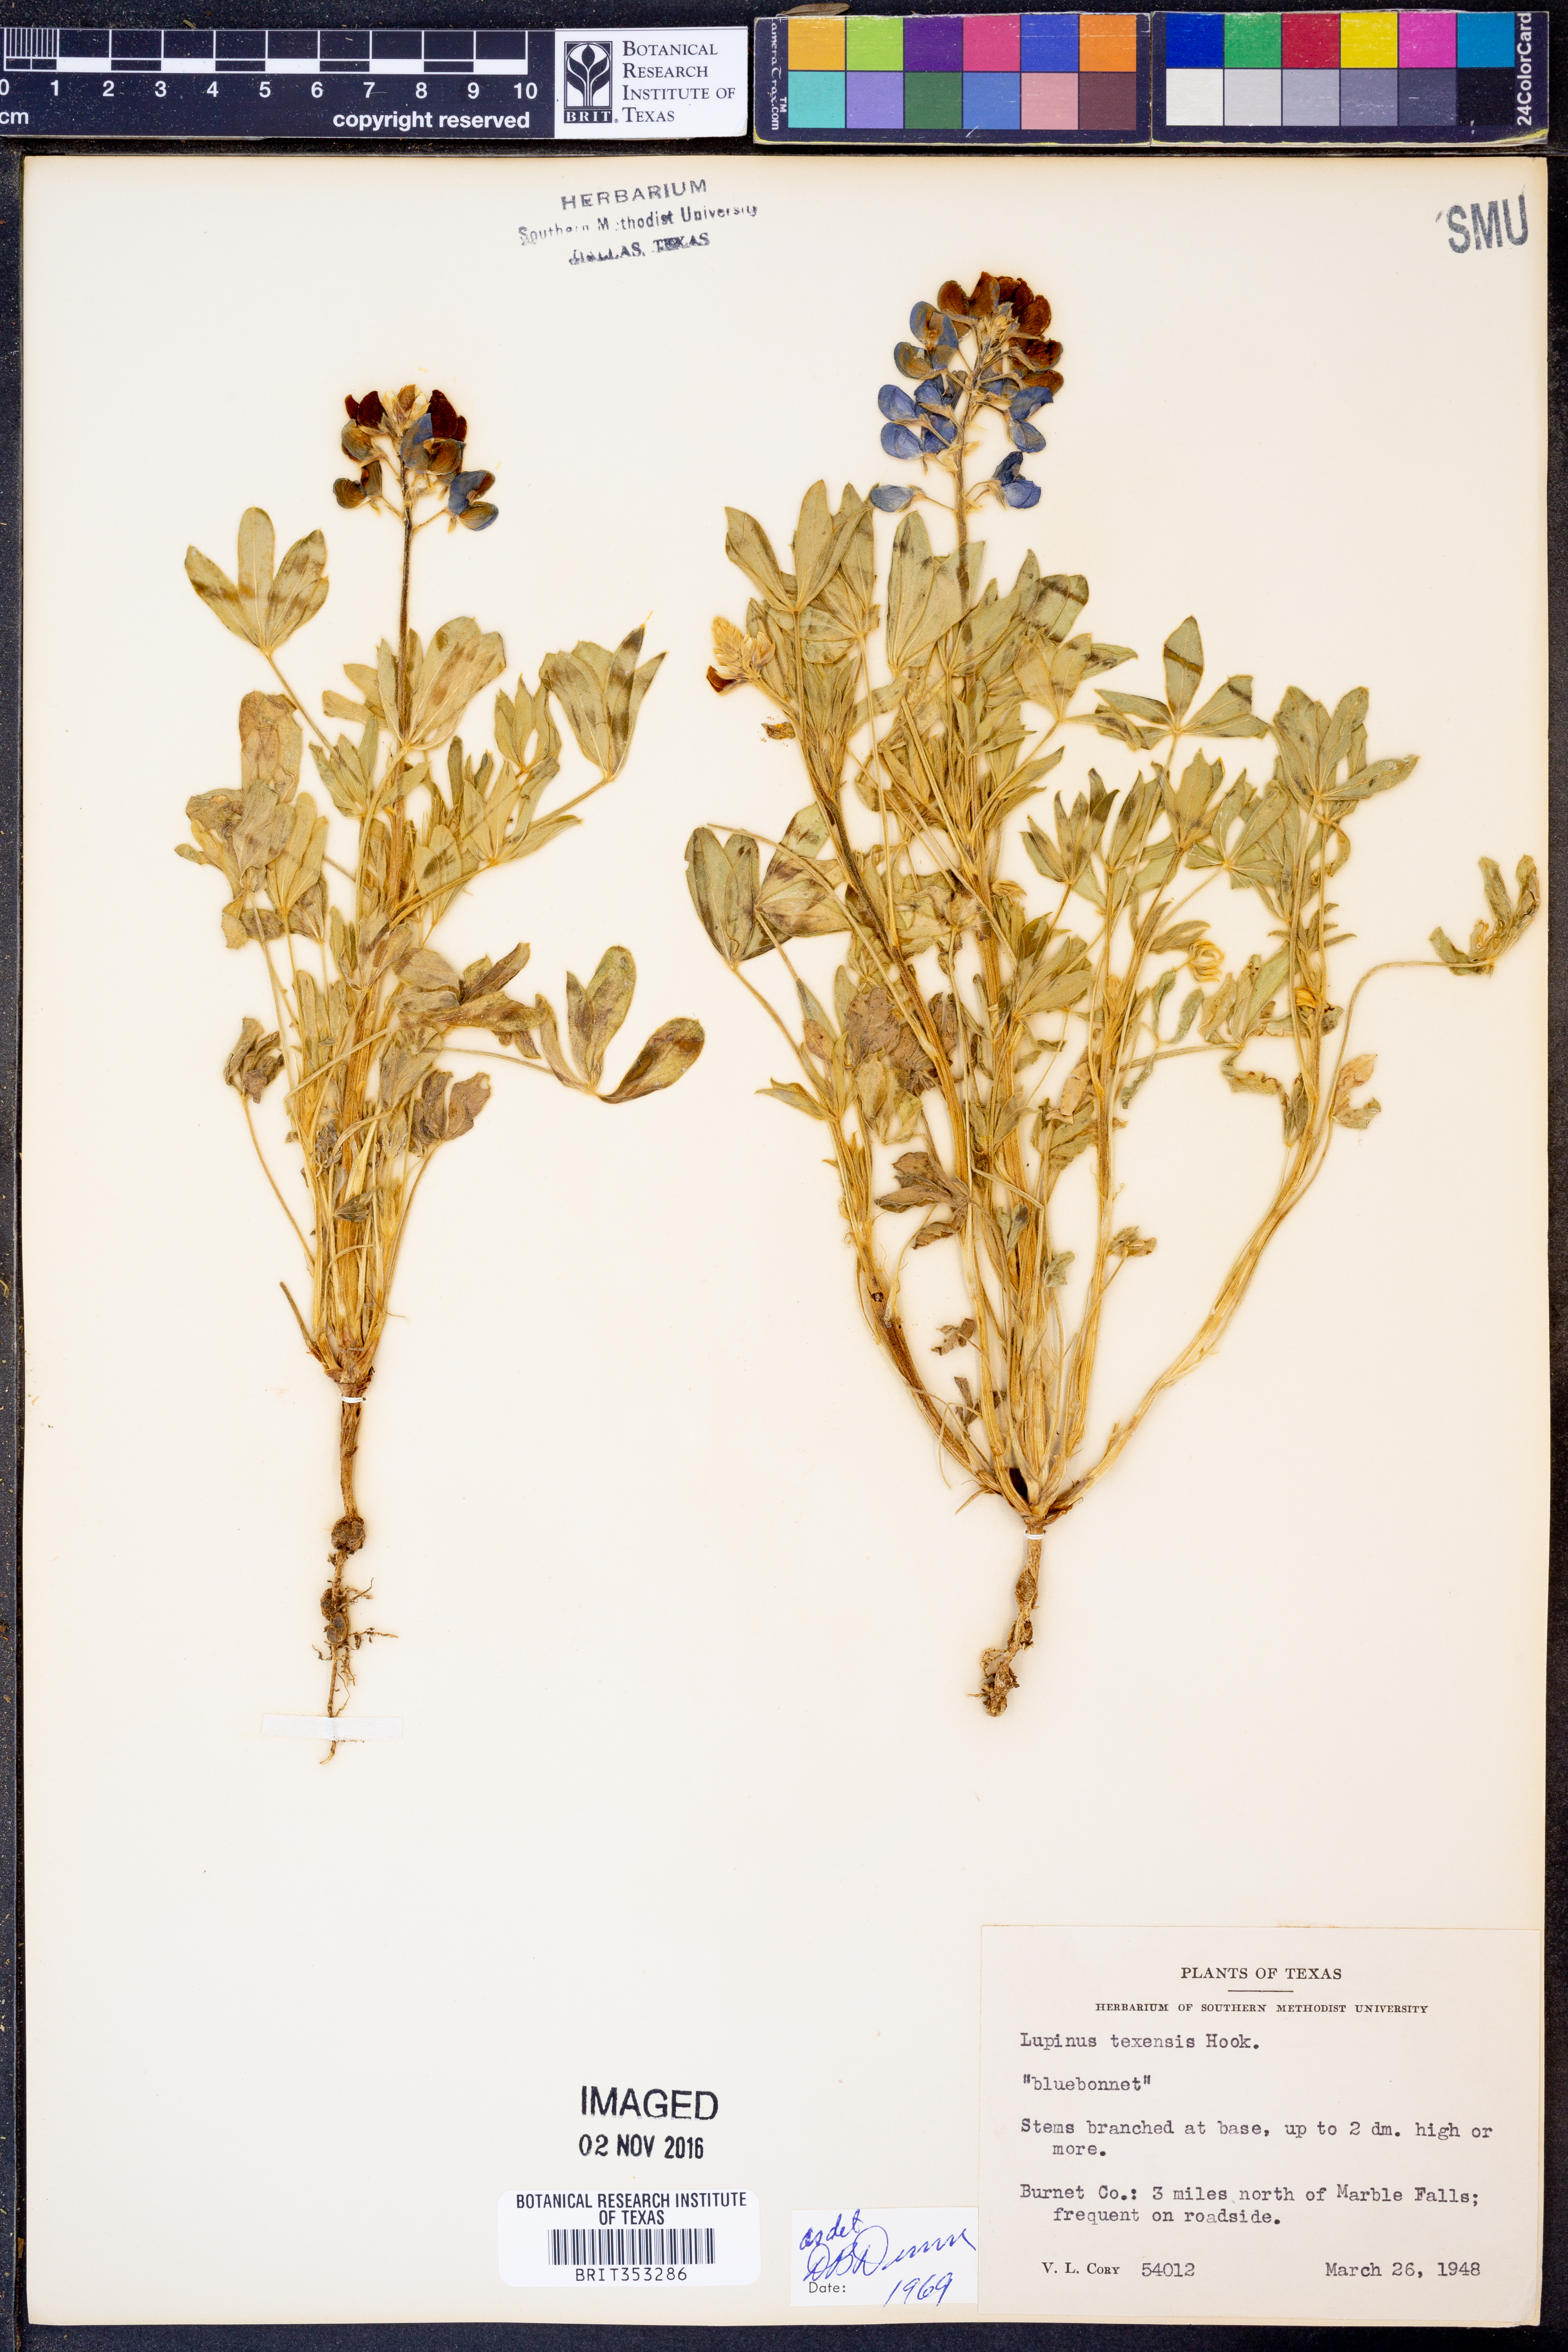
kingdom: Plantae
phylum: Tracheophyta
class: Magnoliopsida
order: Fabales
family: Fabaceae
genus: Lupinus
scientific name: Lupinus texensis
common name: Texas bluebonnet
